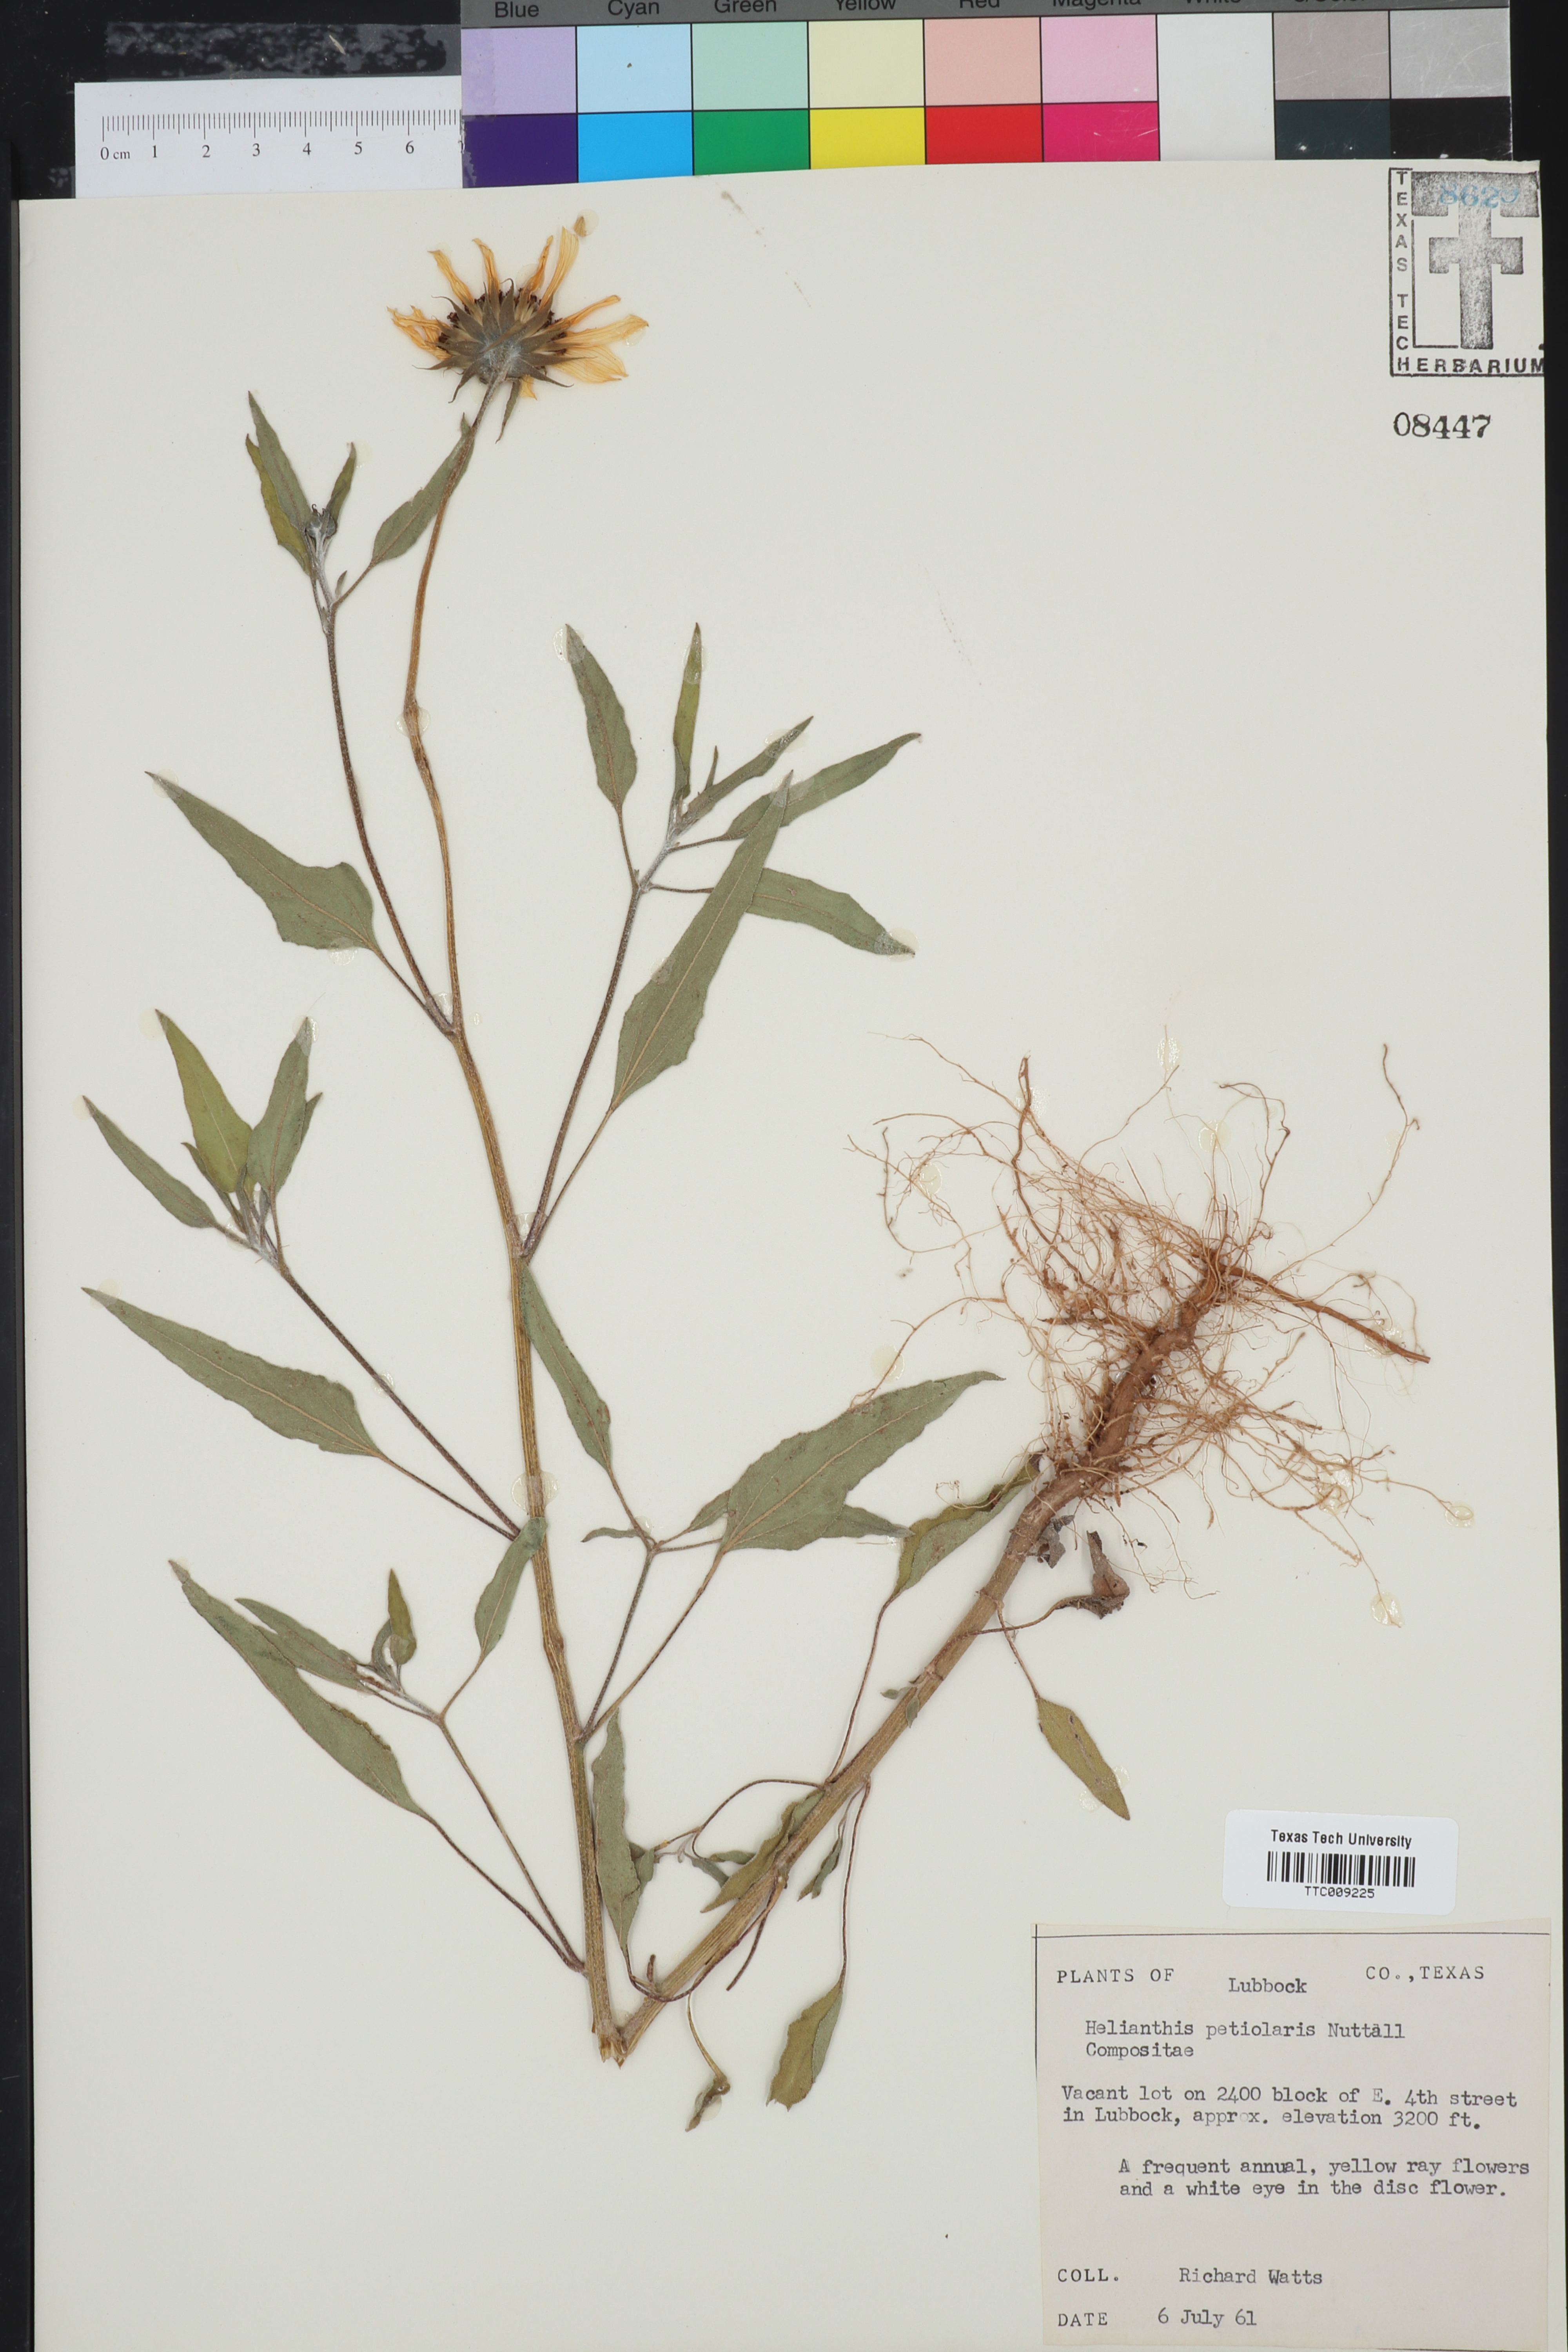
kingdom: Plantae
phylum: Tracheophyta
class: Magnoliopsida
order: Asterales
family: Asteraceae
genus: Helianthus
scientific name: Helianthus petiolaris
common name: Lesser sunflower
